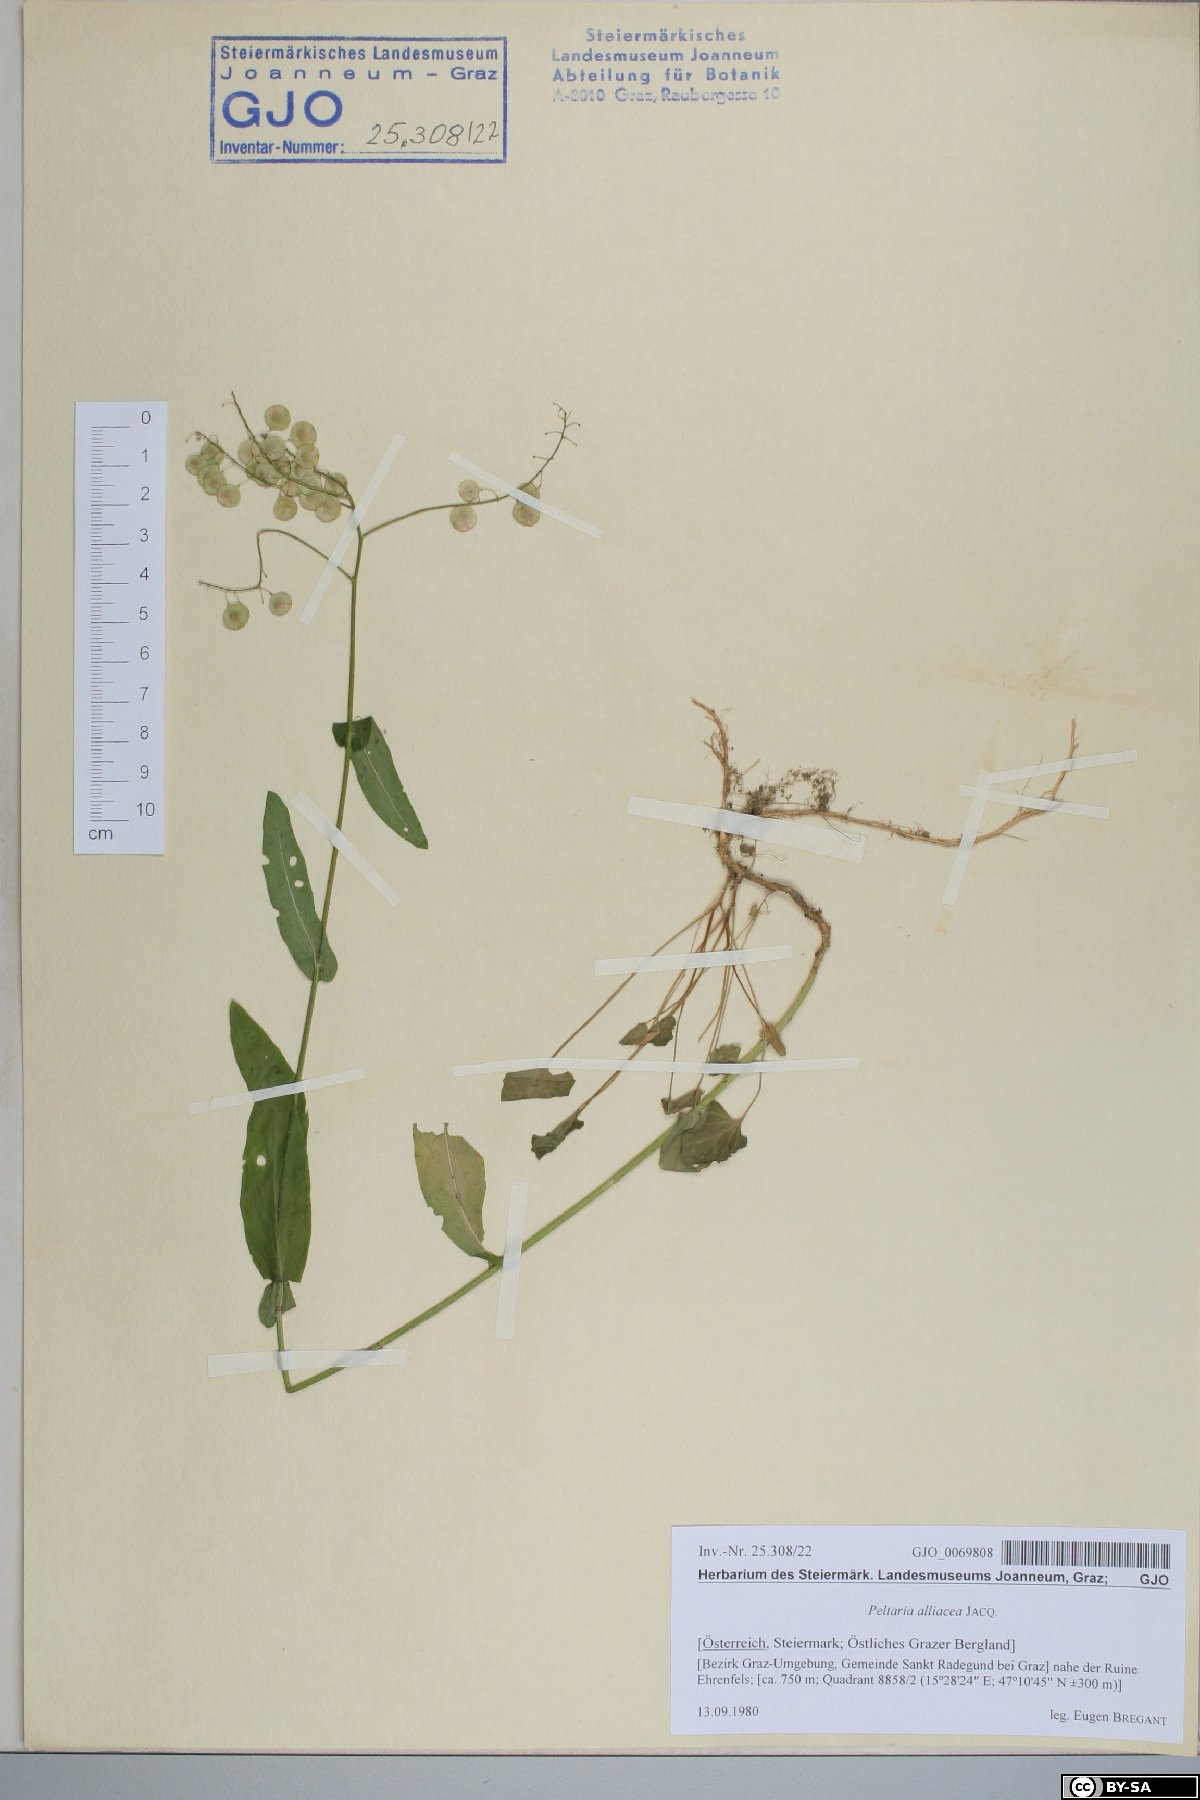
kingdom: Plantae
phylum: Tracheophyta
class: Magnoliopsida
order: Brassicales
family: Brassicaceae
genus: Peltaria
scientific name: Peltaria alliacea
